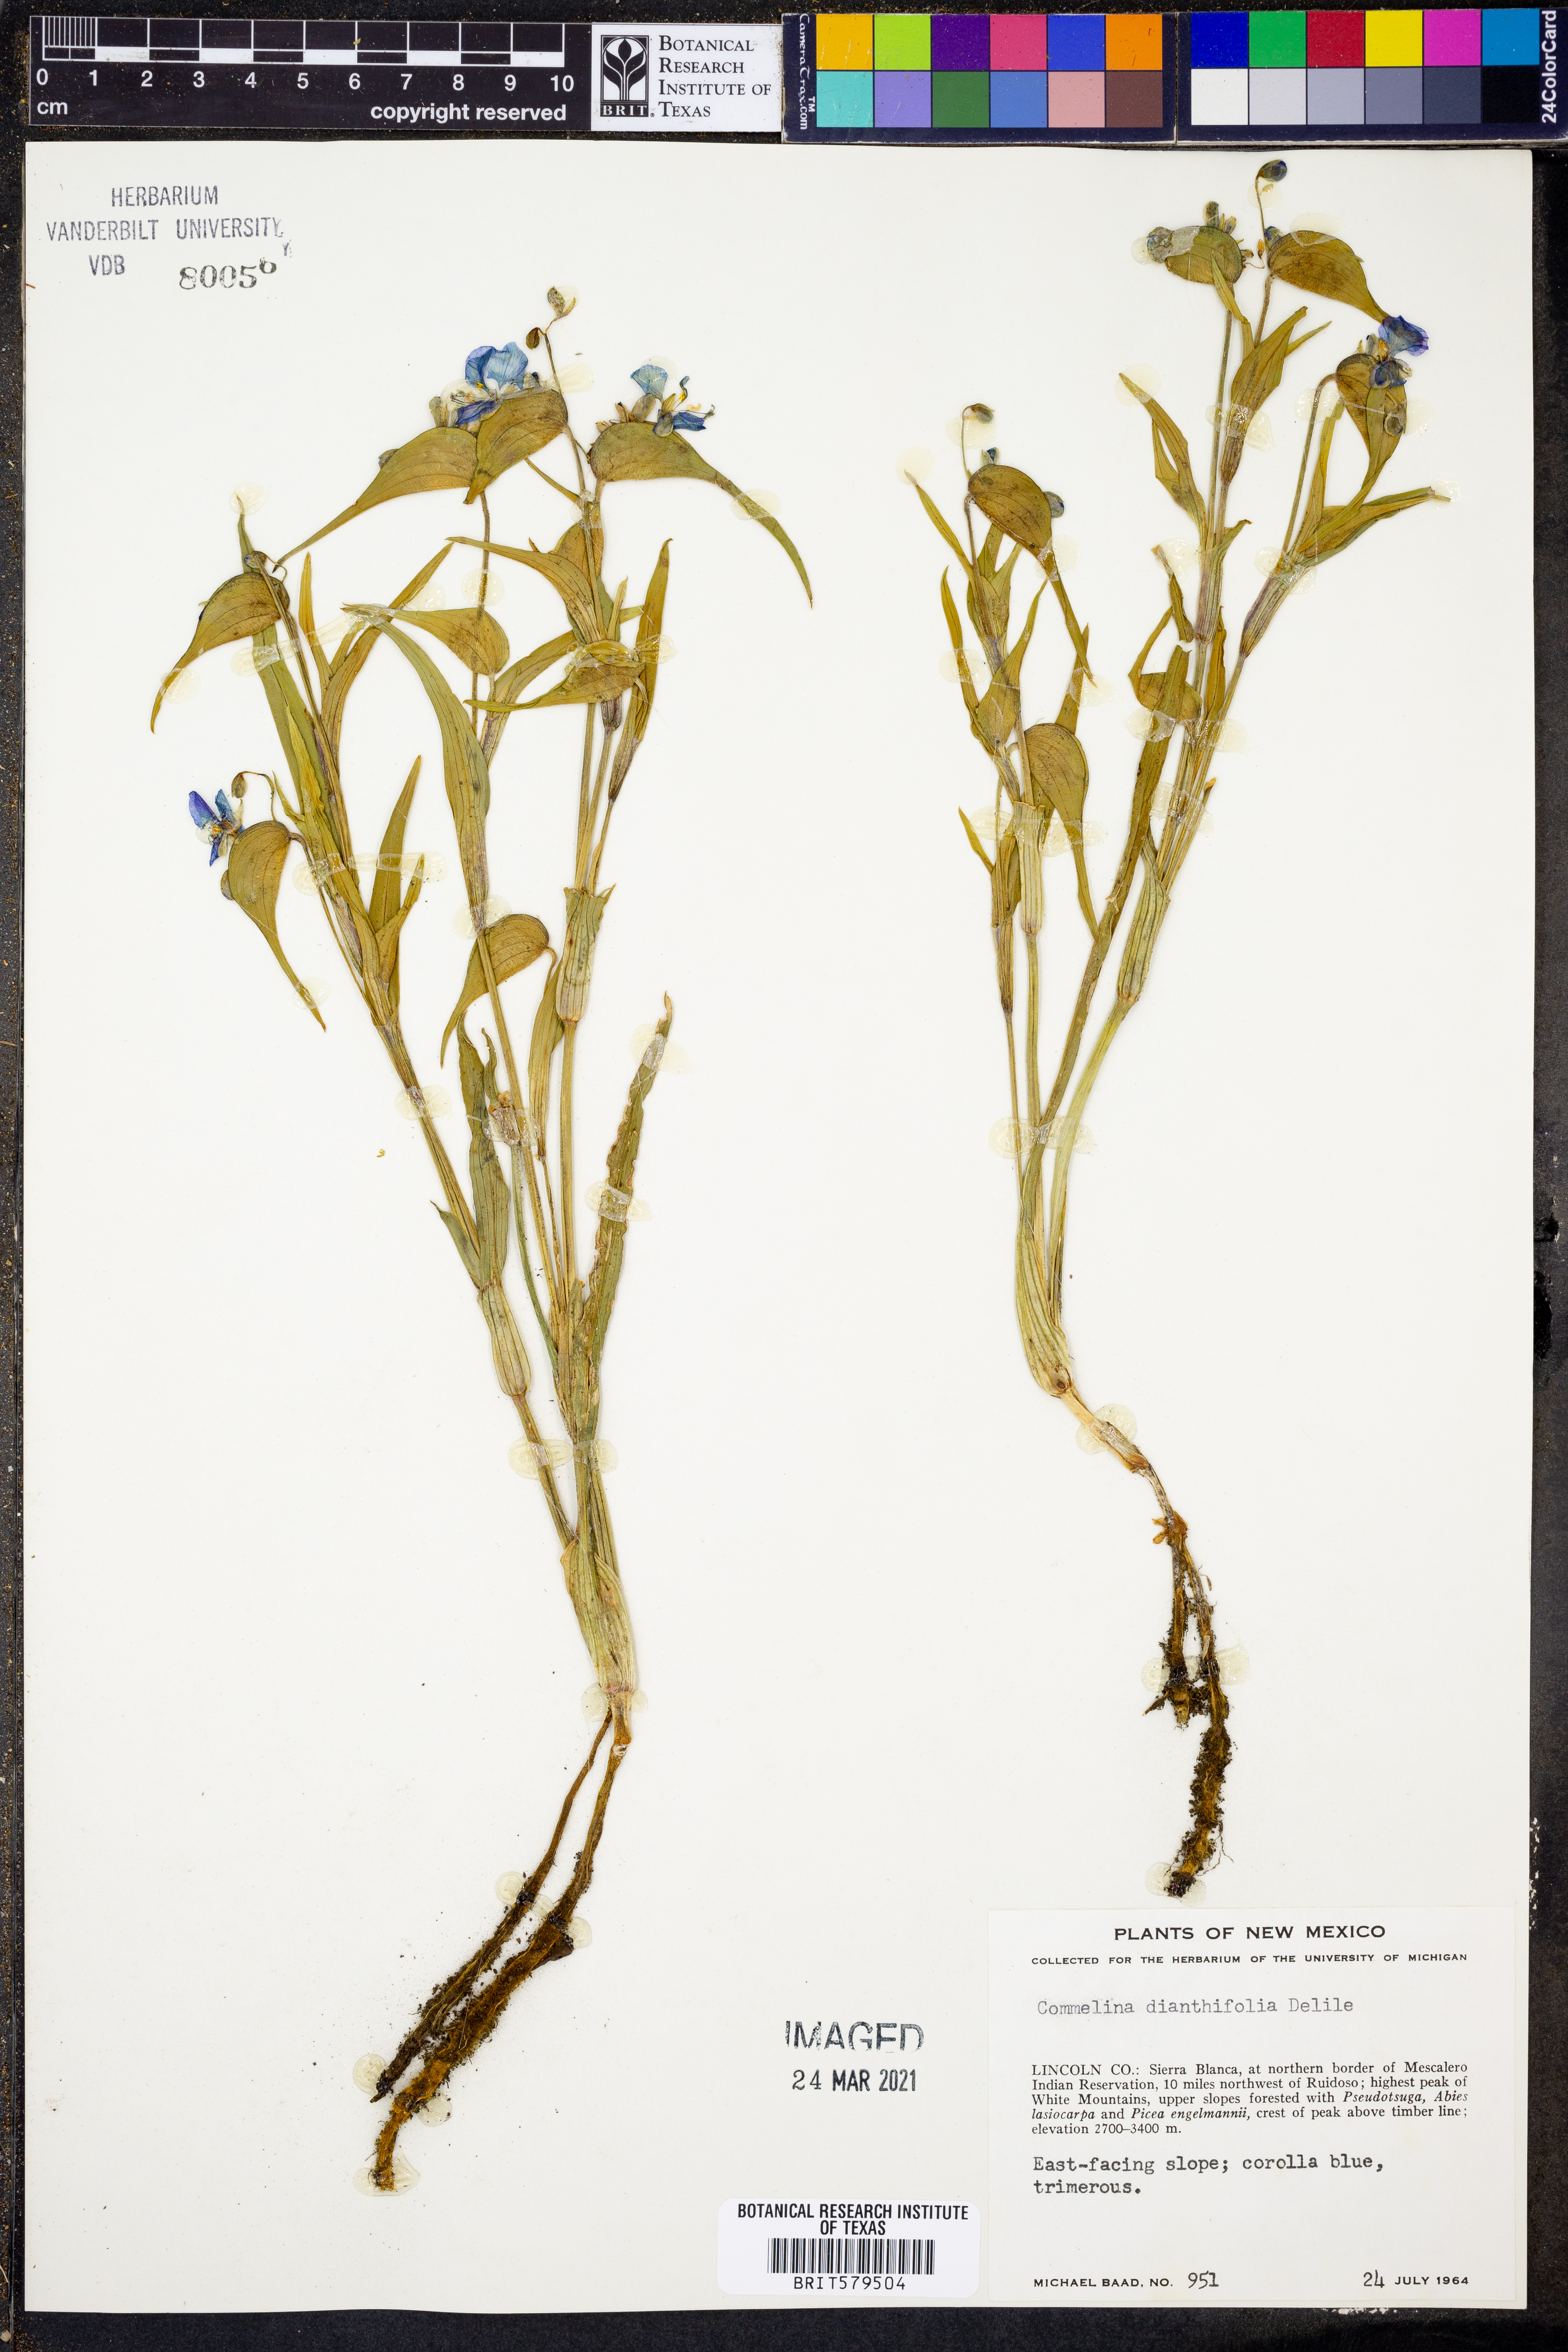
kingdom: Plantae
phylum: Tracheophyta
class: Liliopsida
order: Commelinales
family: Commelinaceae
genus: Commelina
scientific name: Commelina dianthifolia
